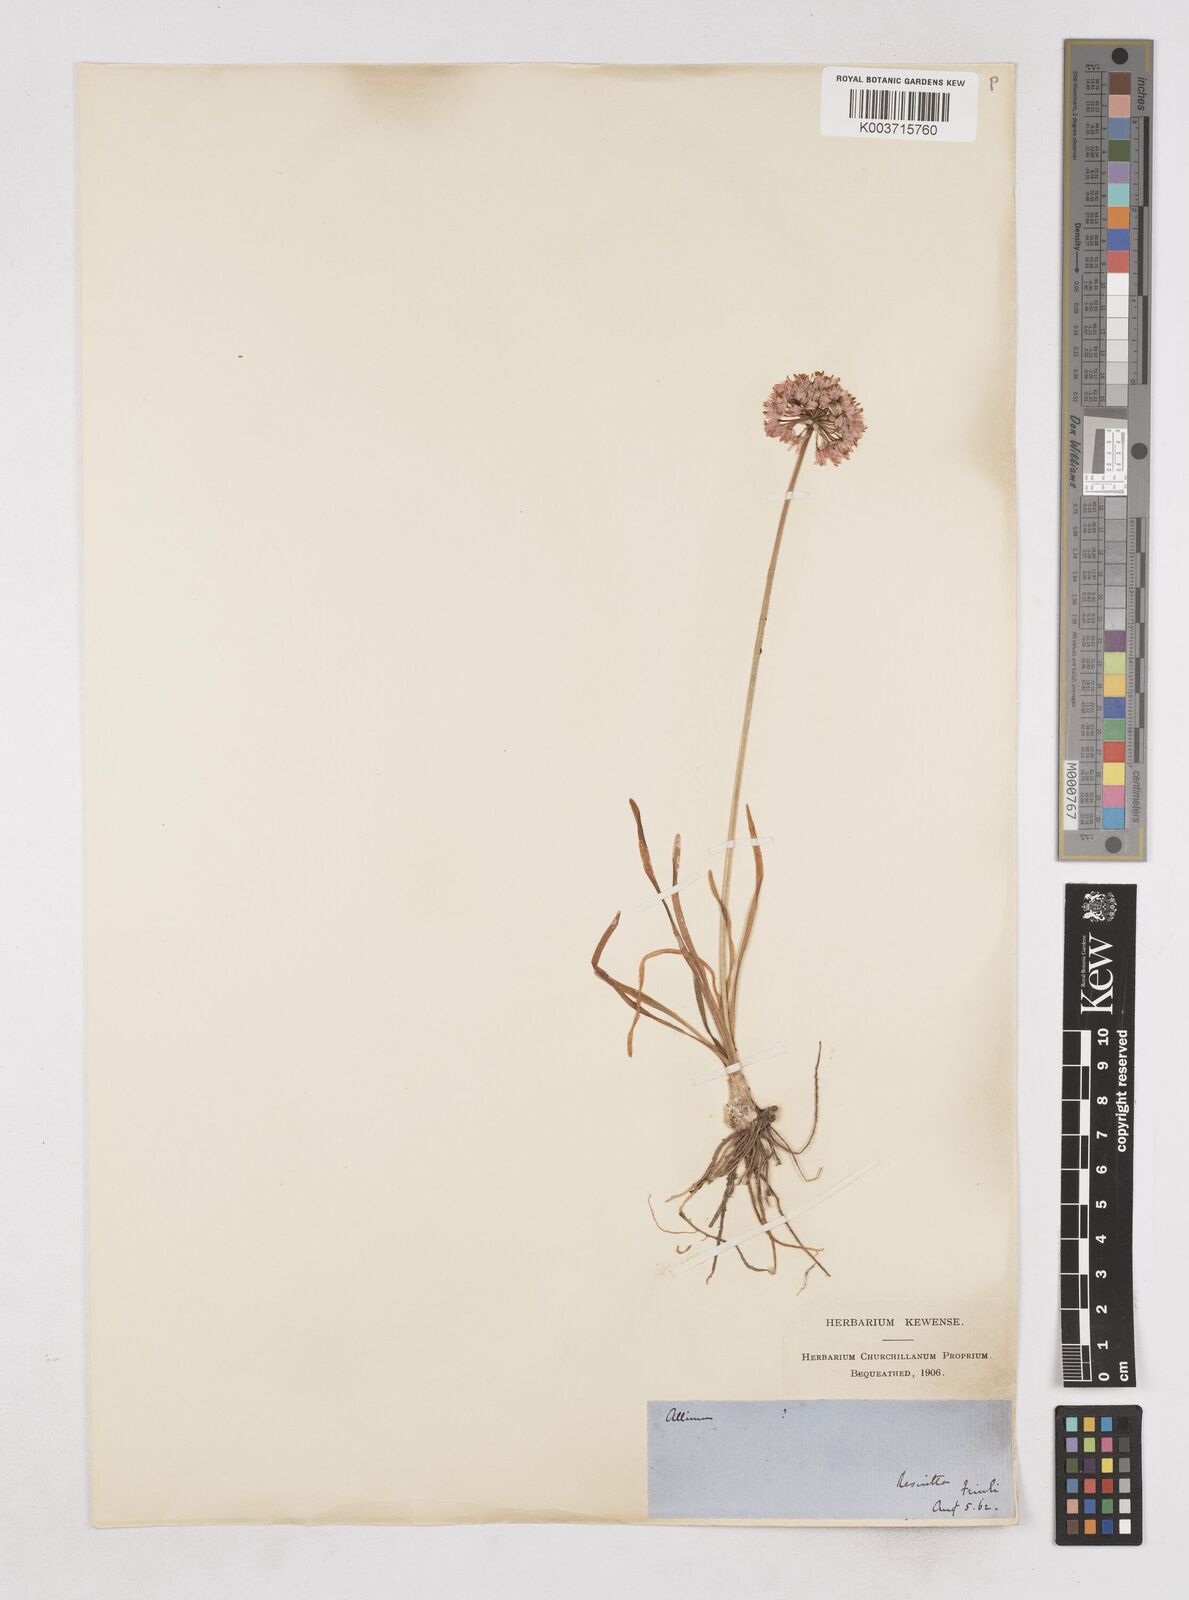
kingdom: Plantae
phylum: Tracheophyta
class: Liliopsida
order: Asparagales
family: Amaryllidaceae
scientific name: Amaryllidaceae
